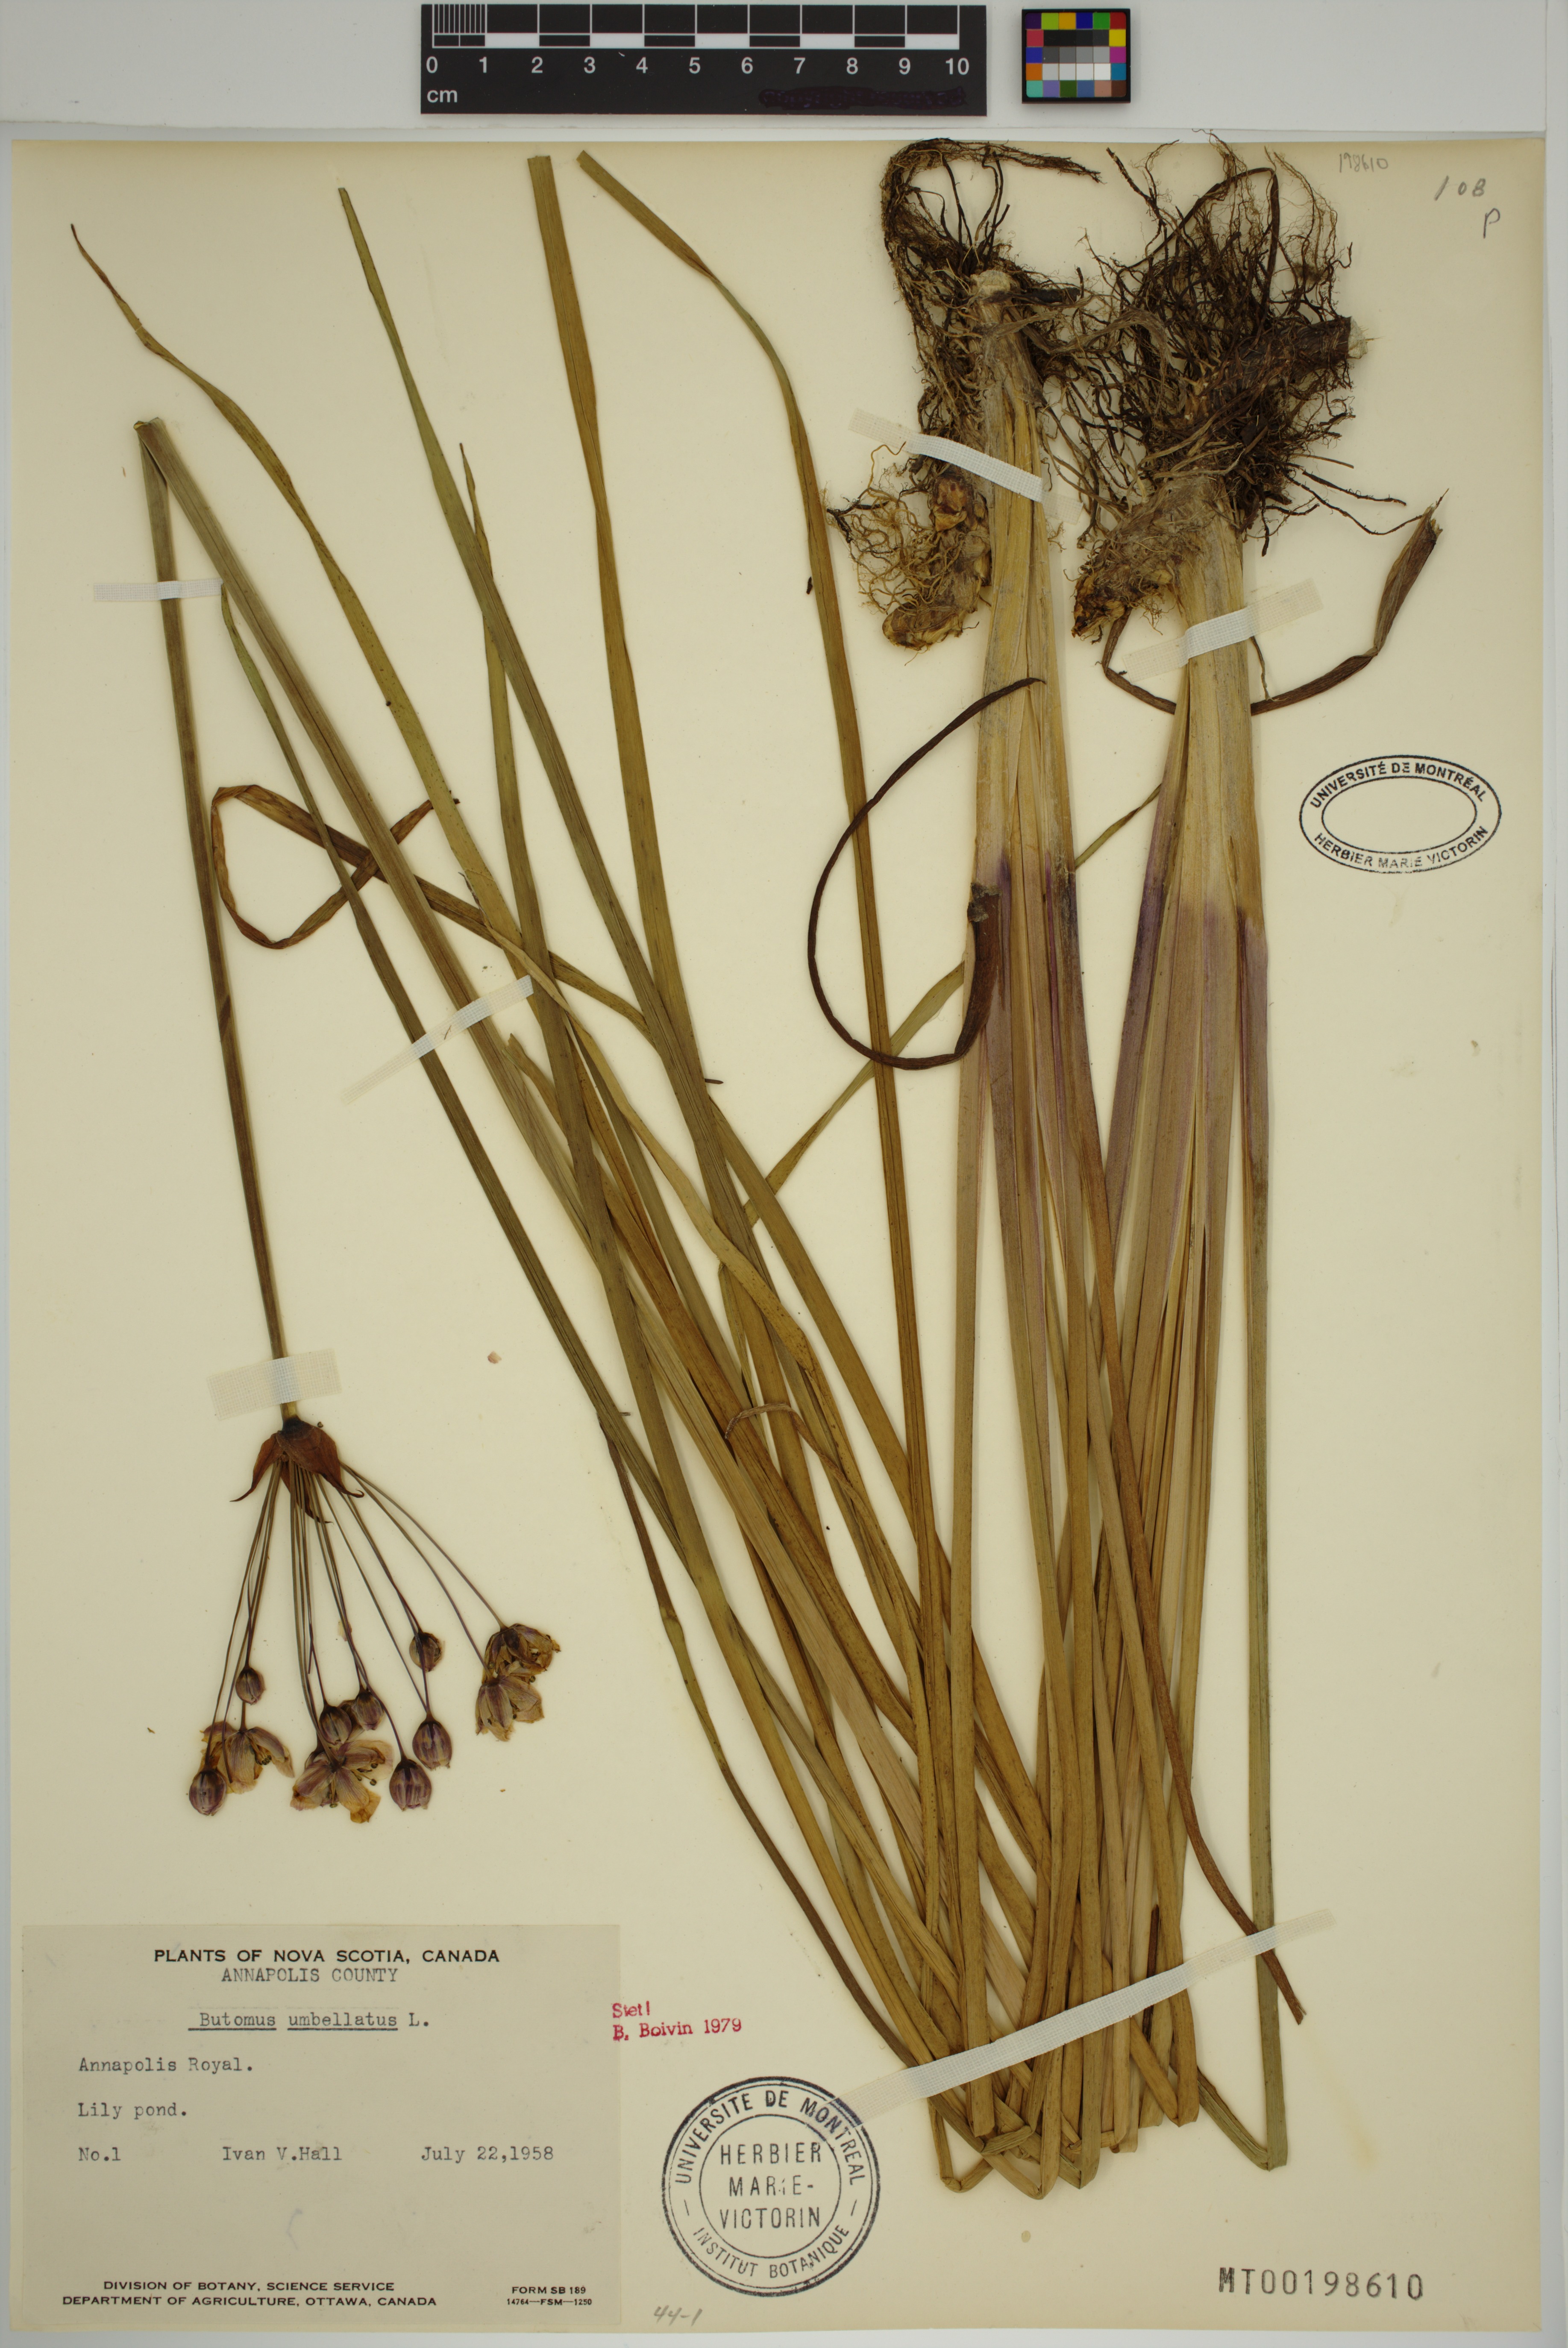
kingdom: Plantae
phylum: Tracheophyta
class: Liliopsida
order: Alismatales
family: Butomaceae
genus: Butomus
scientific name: Butomus umbellatus
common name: Flowering-rush
